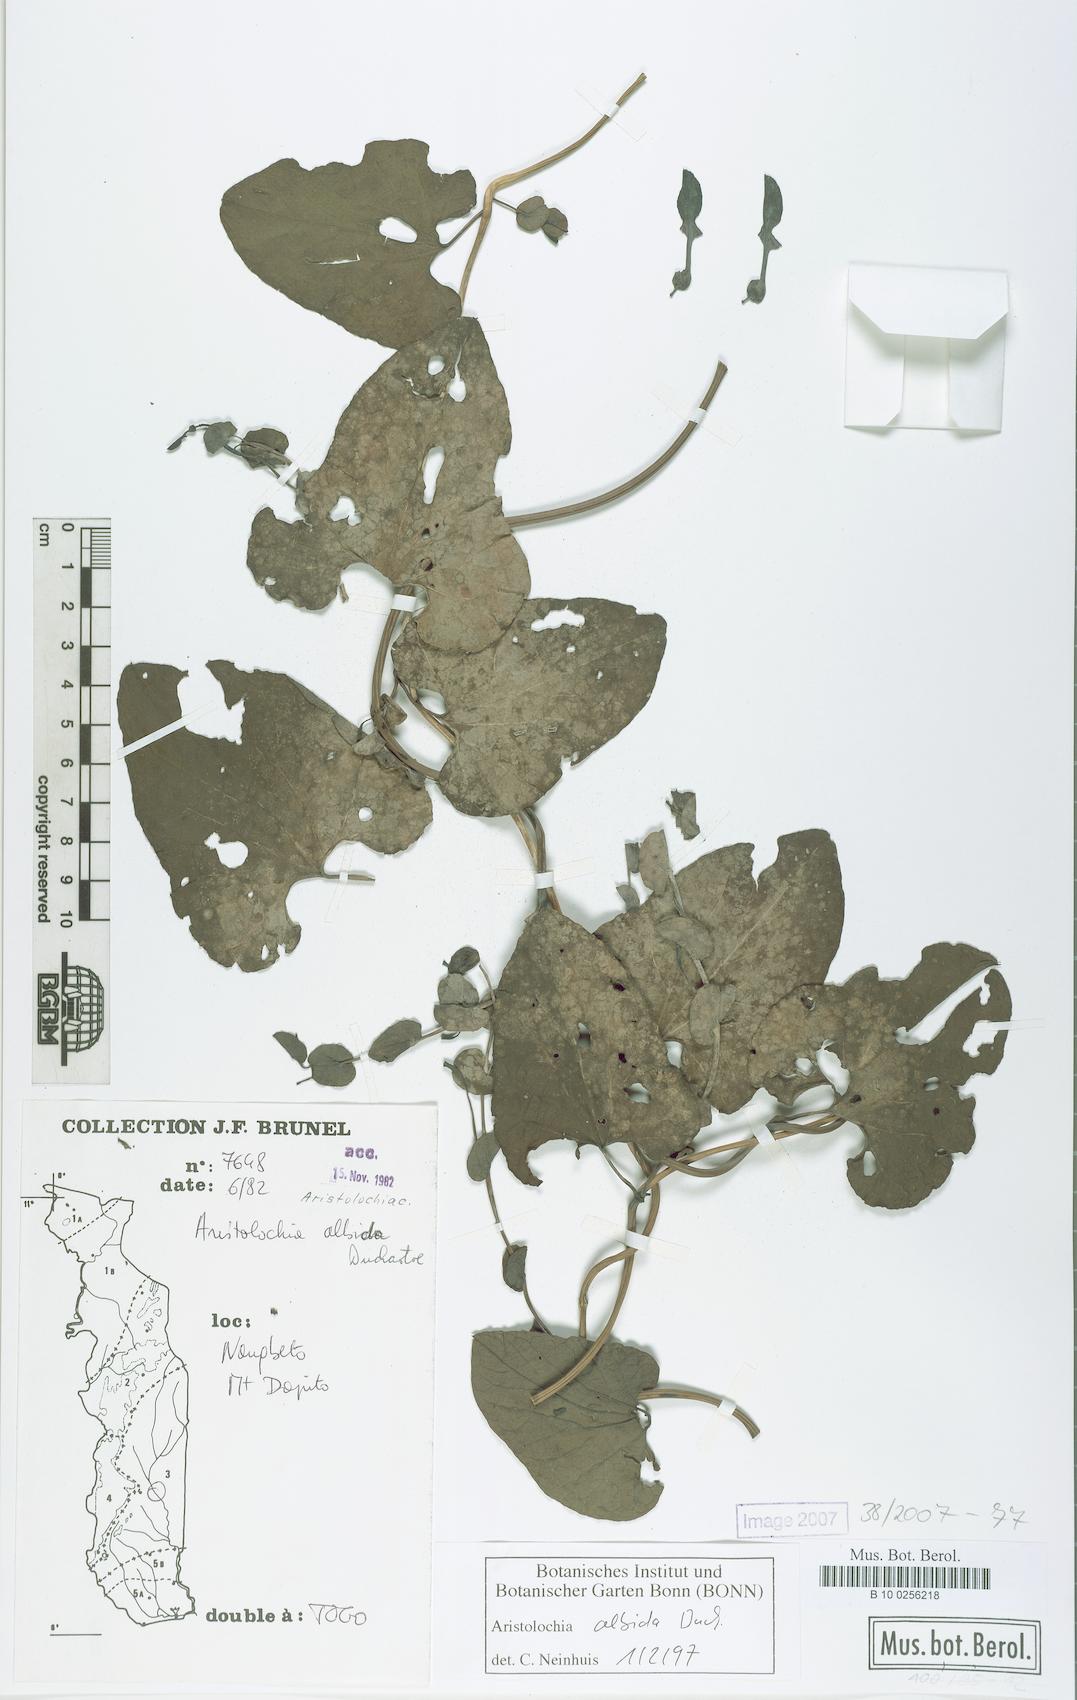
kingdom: Plantae
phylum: Tracheophyta
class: Magnoliopsida
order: Piperales
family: Aristolochiaceae
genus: Aristolochia
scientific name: Aristolochia albida
